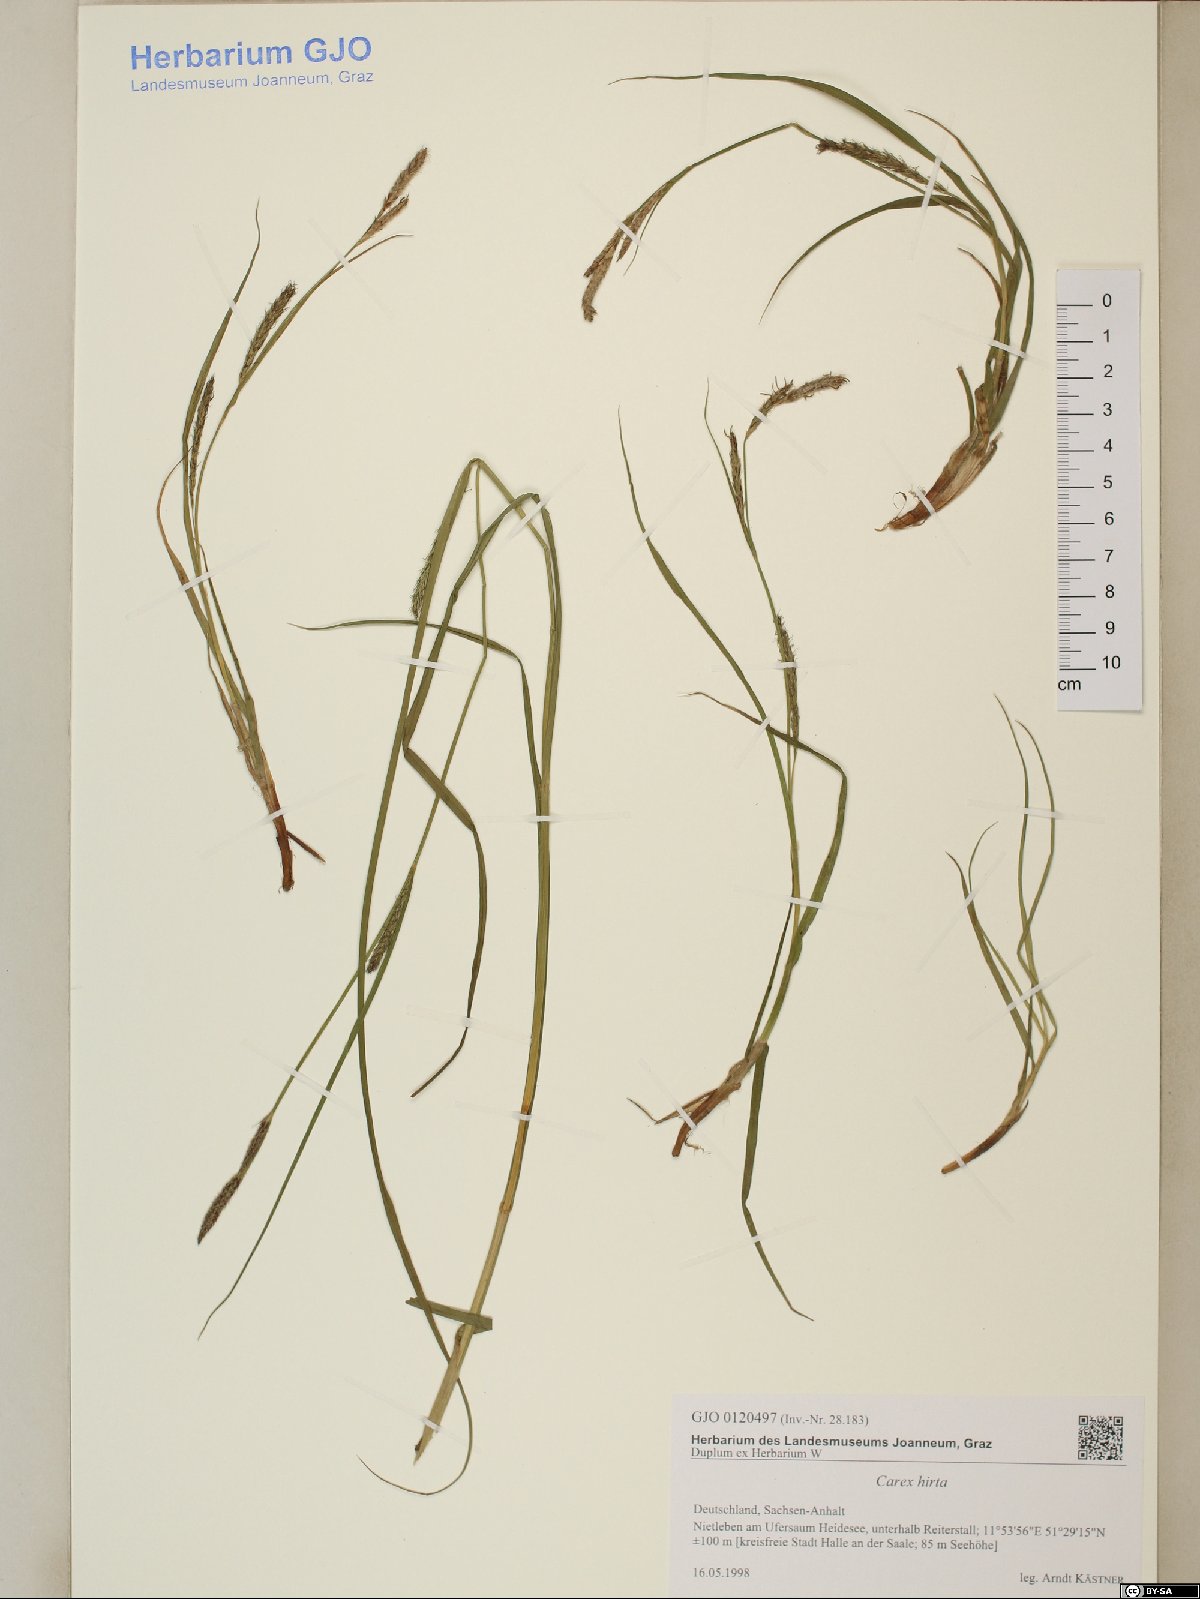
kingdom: Plantae
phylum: Tracheophyta
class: Liliopsida
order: Poales
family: Cyperaceae
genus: Carex
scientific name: Carex hirta
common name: Hairy sedge
